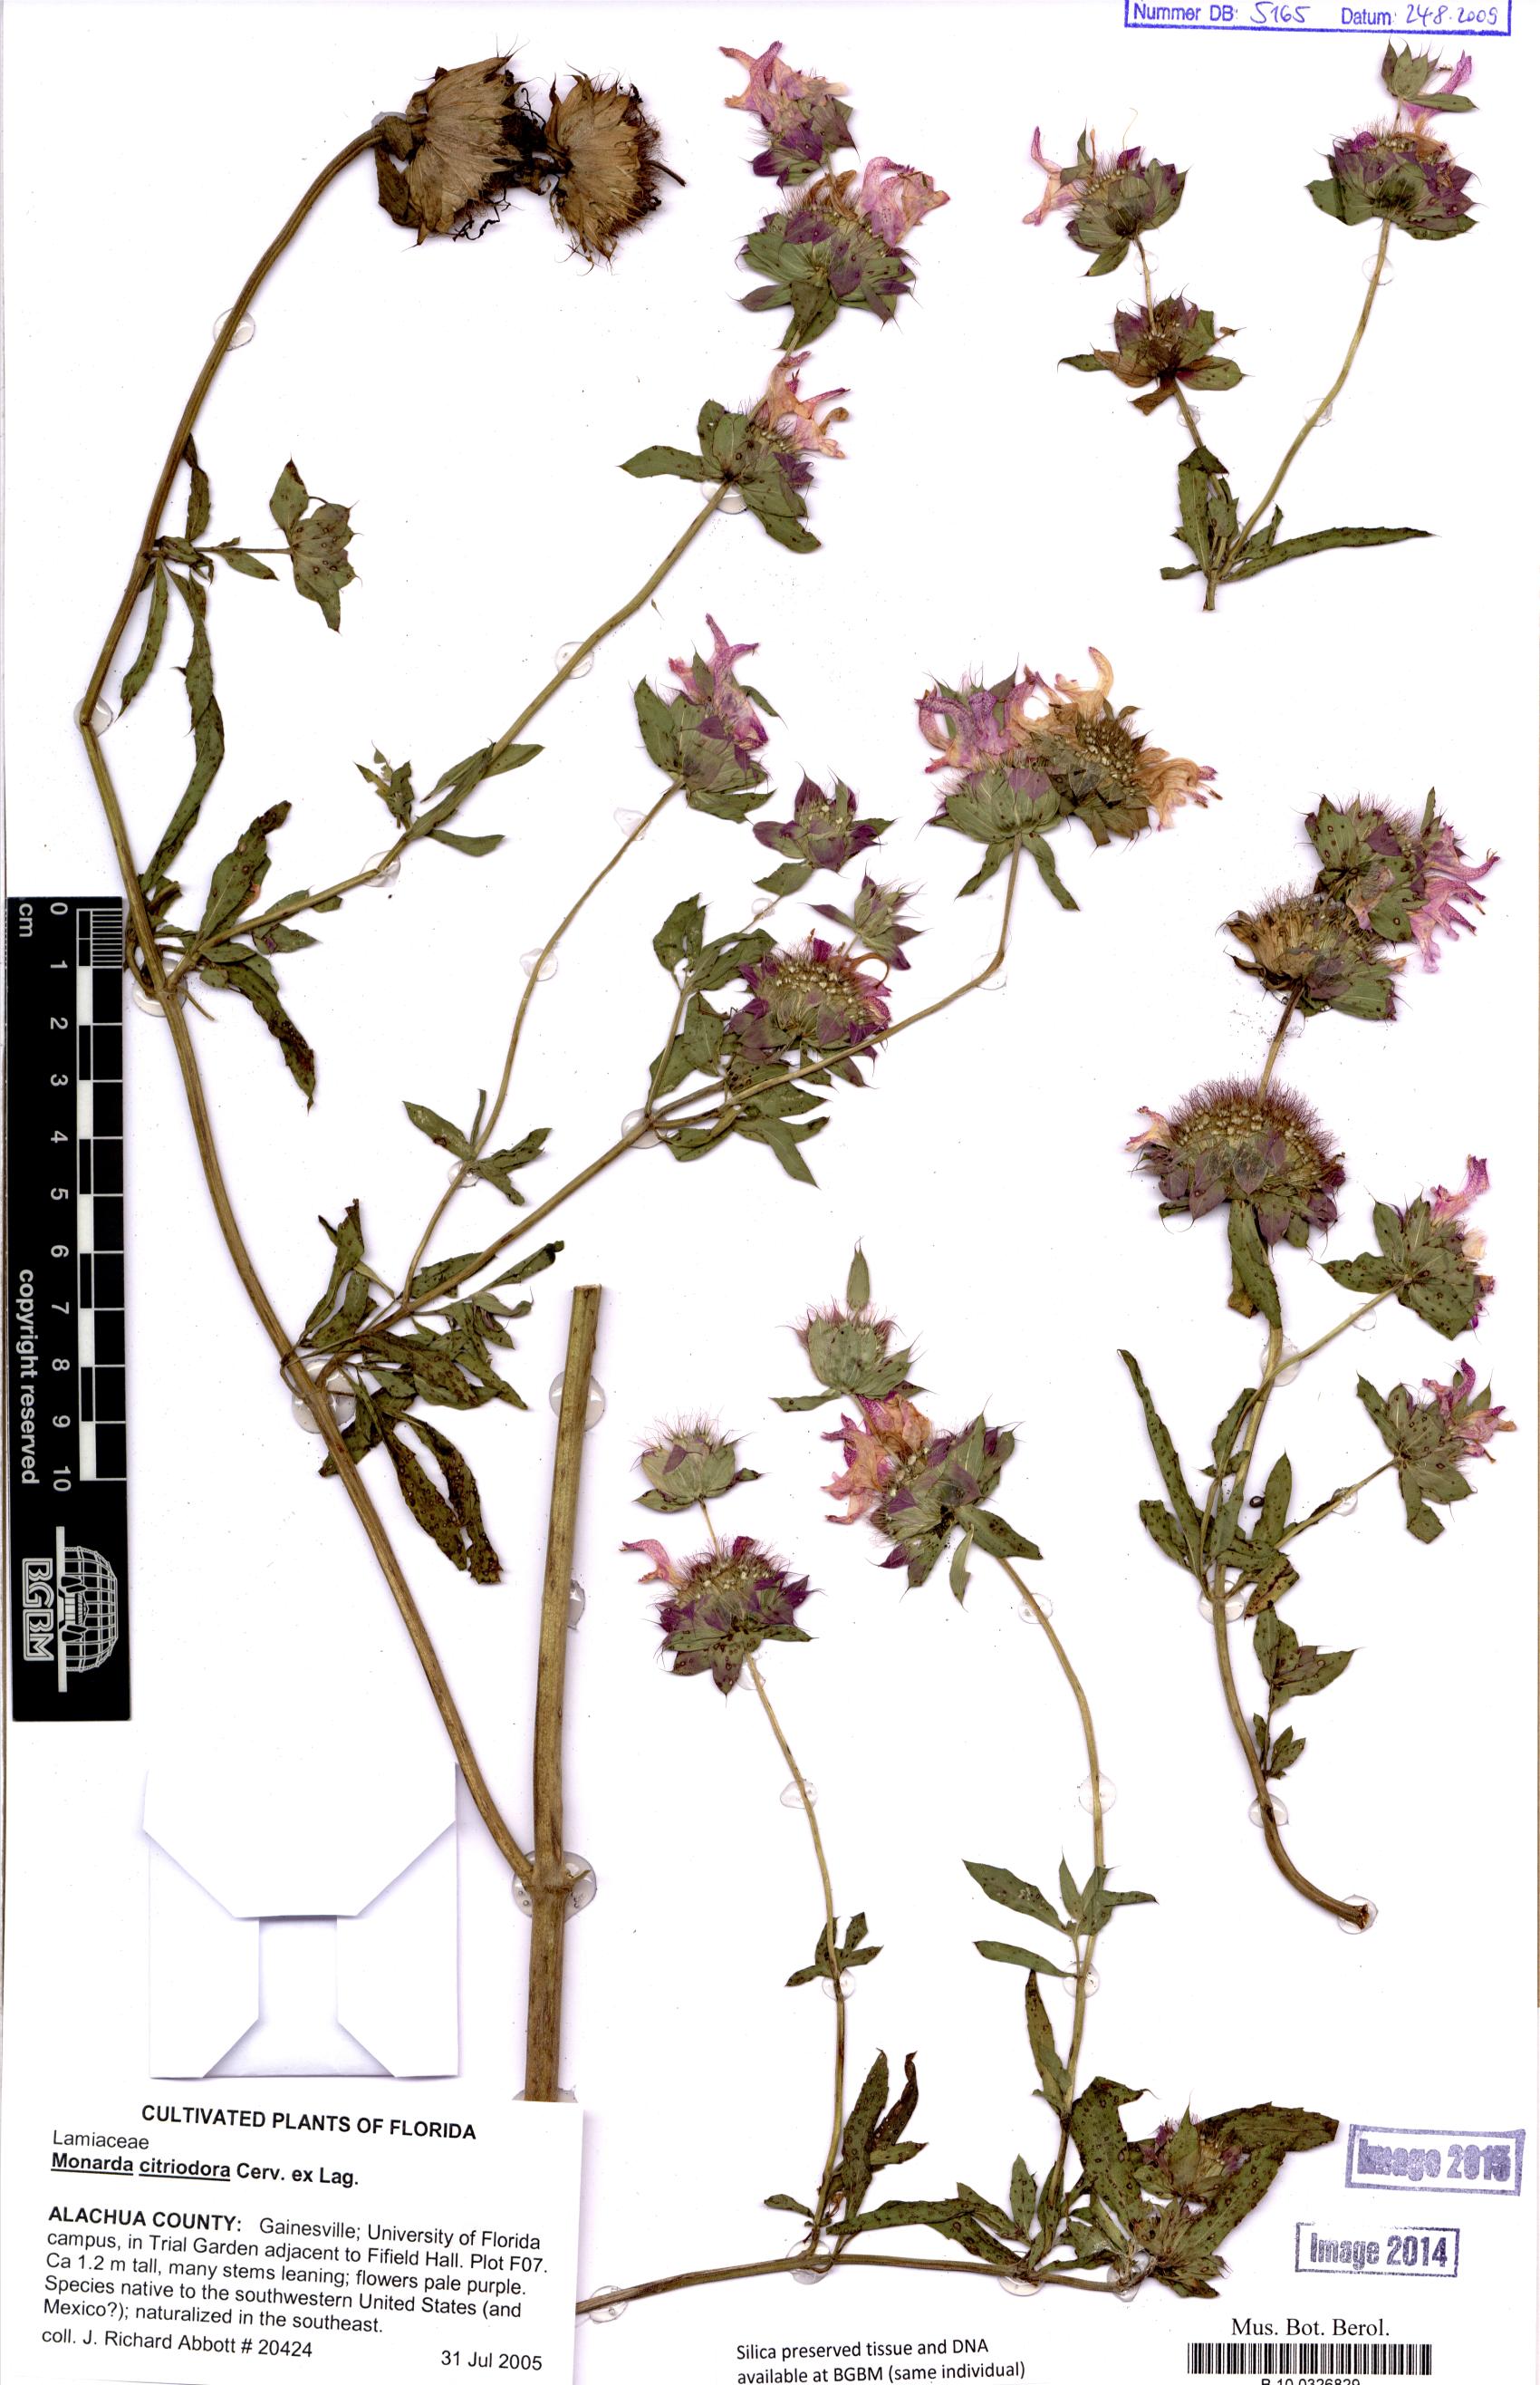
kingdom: Plantae
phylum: Tracheophyta
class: Magnoliopsida
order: Lamiales
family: Lamiaceae
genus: Monarda
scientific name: Monarda citriodora
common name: Lemon beebalm
